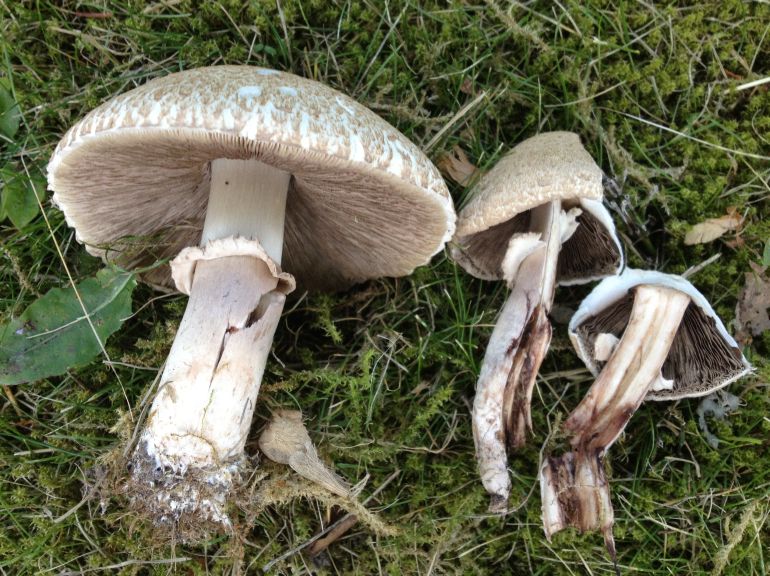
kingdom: Fungi
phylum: Basidiomycota
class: Agaricomycetes
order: Agaricales
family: Agaricaceae
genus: Agaricus
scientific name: Agaricus depauperatus
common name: finskællet champignon
